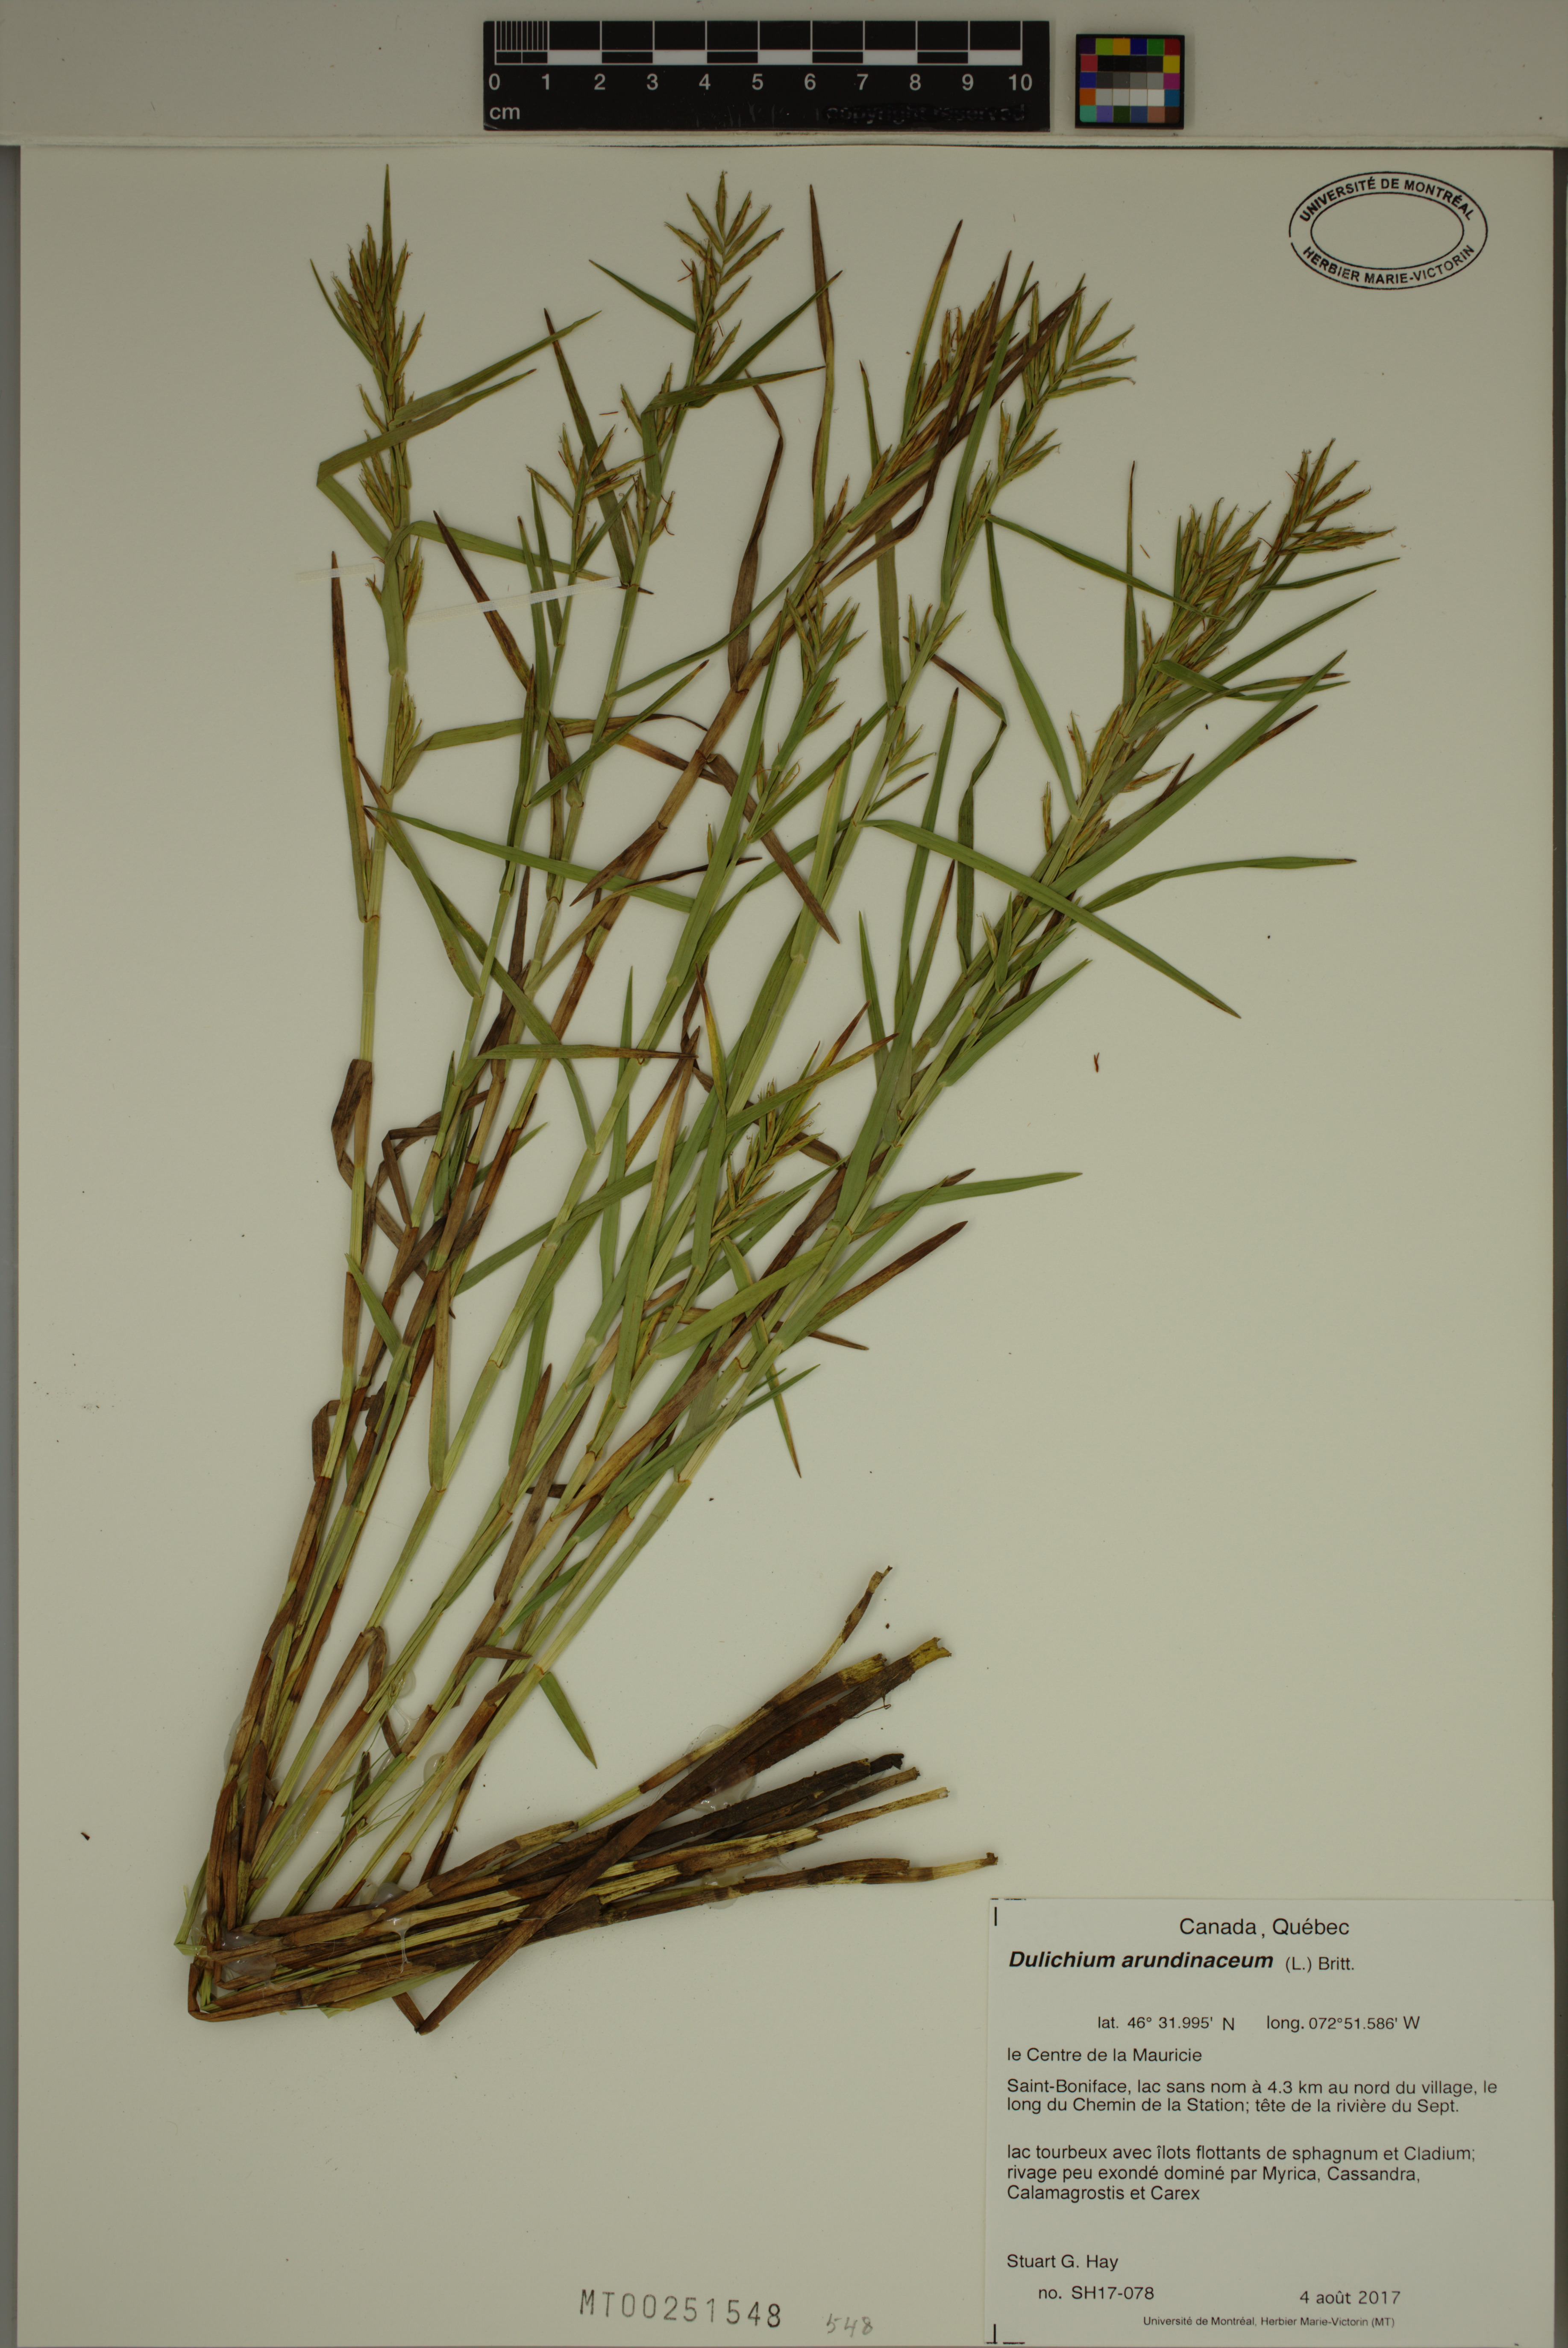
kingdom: Plantae
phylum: Tracheophyta
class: Liliopsida
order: Poales
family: Cyperaceae
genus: Dulichium
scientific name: Dulichium arundinaceum
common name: Three-way sedge
